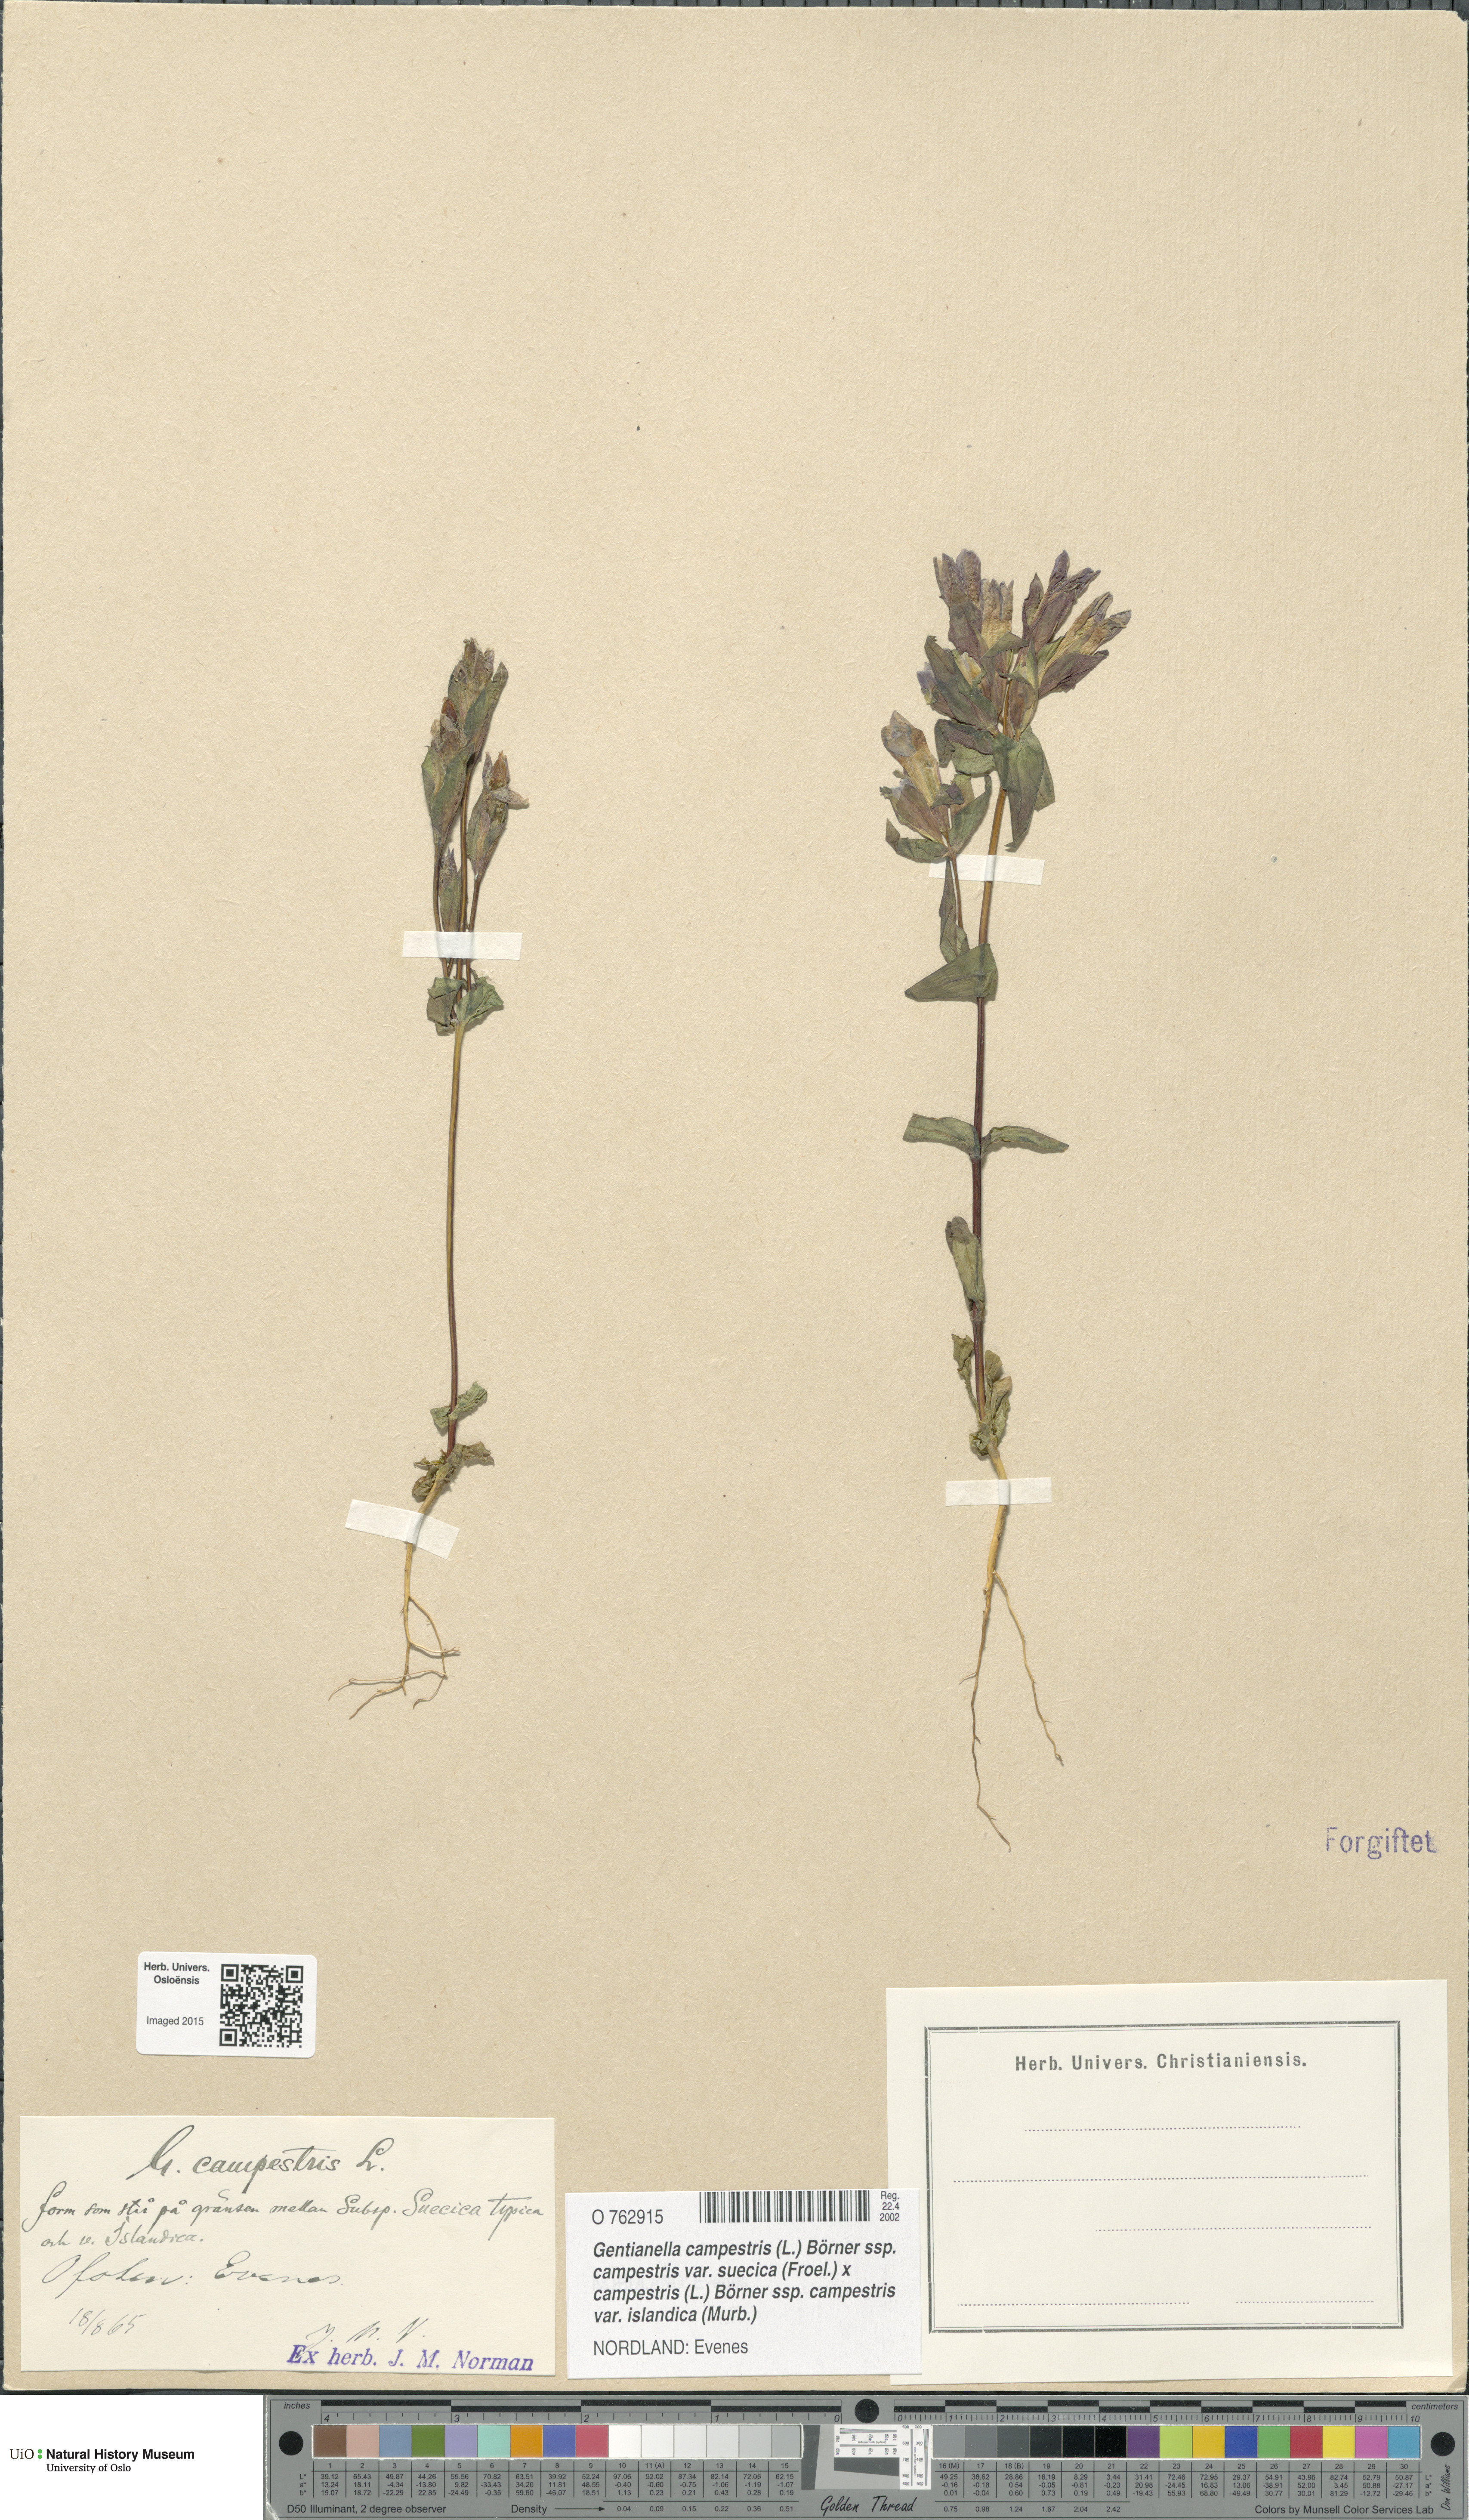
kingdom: Plantae
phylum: Tracheophyta
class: Magnoliopsida
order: Gentianales
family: Gentianaceae
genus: Gentianella
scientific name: Gentianella
